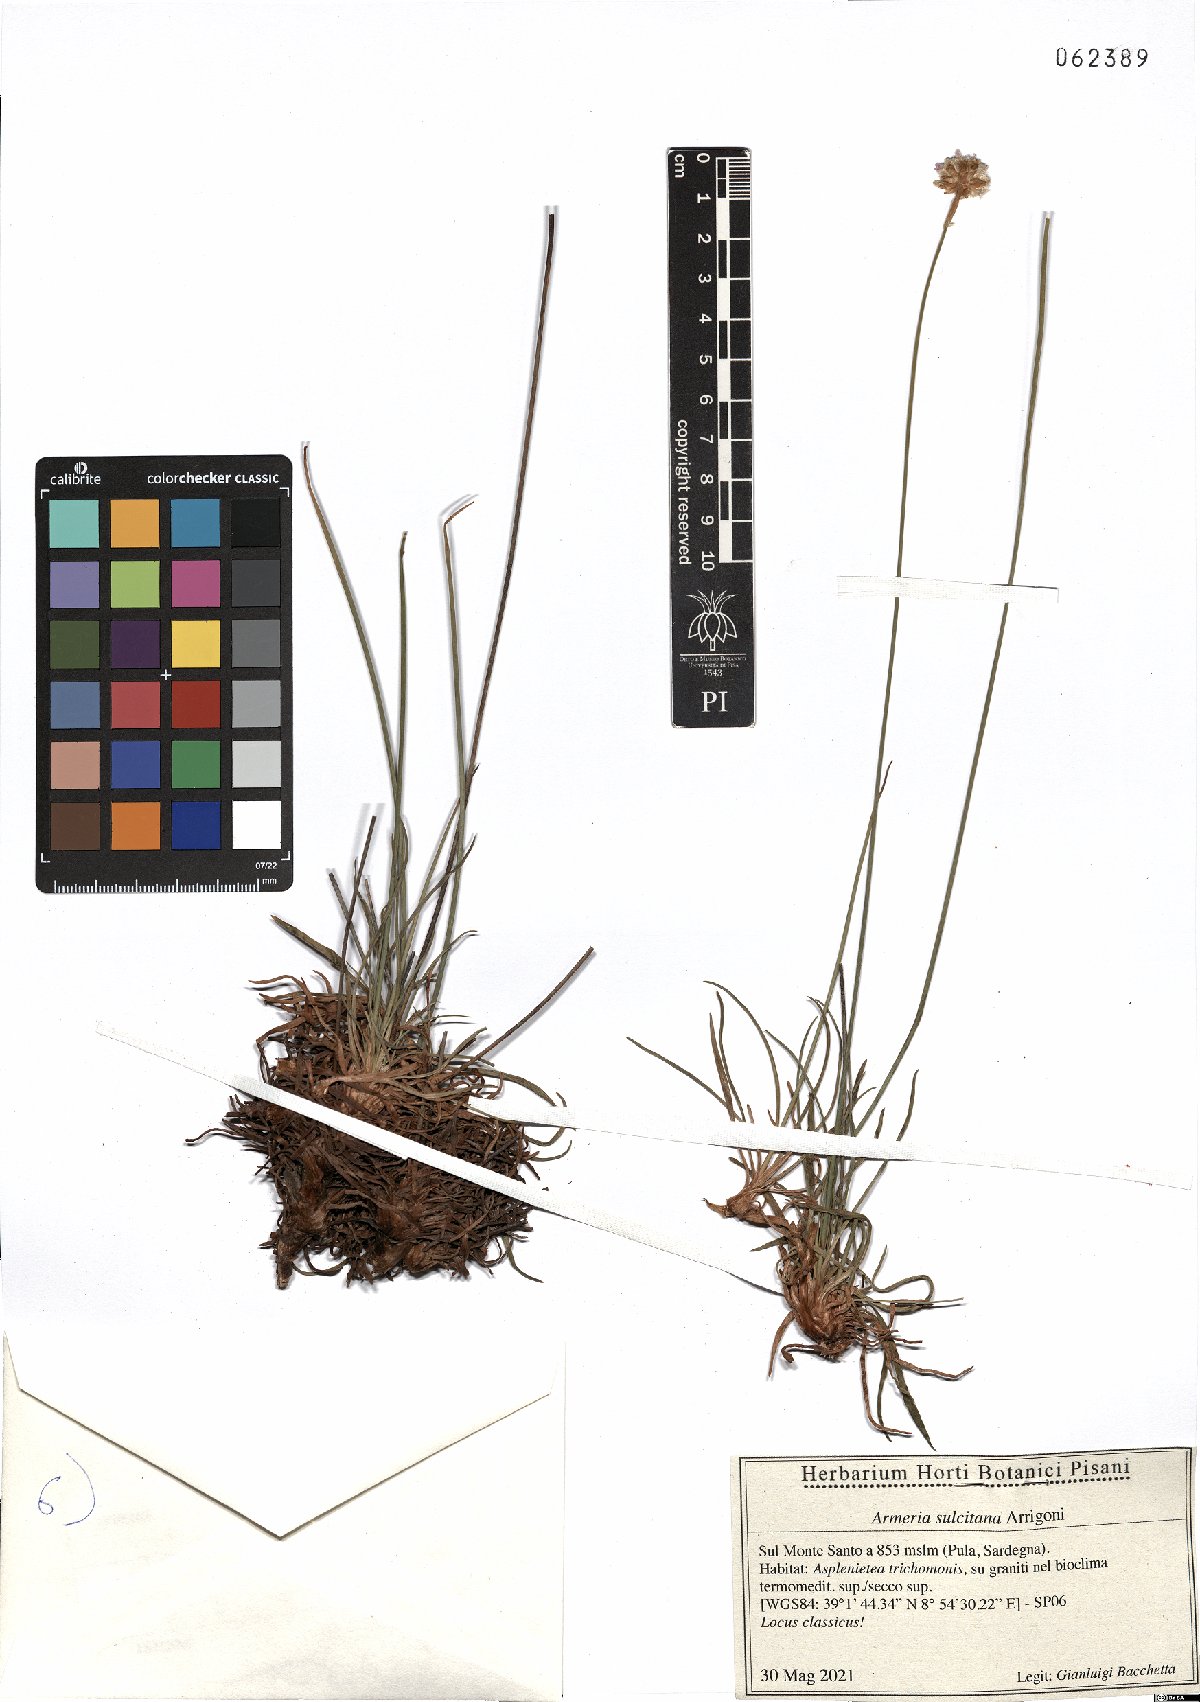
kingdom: Plantae
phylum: Tracheophyta
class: Magnoliopsida
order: Caryophyllales
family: Plumbaginaceae
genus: Armeria
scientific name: Armeria sulcitana
